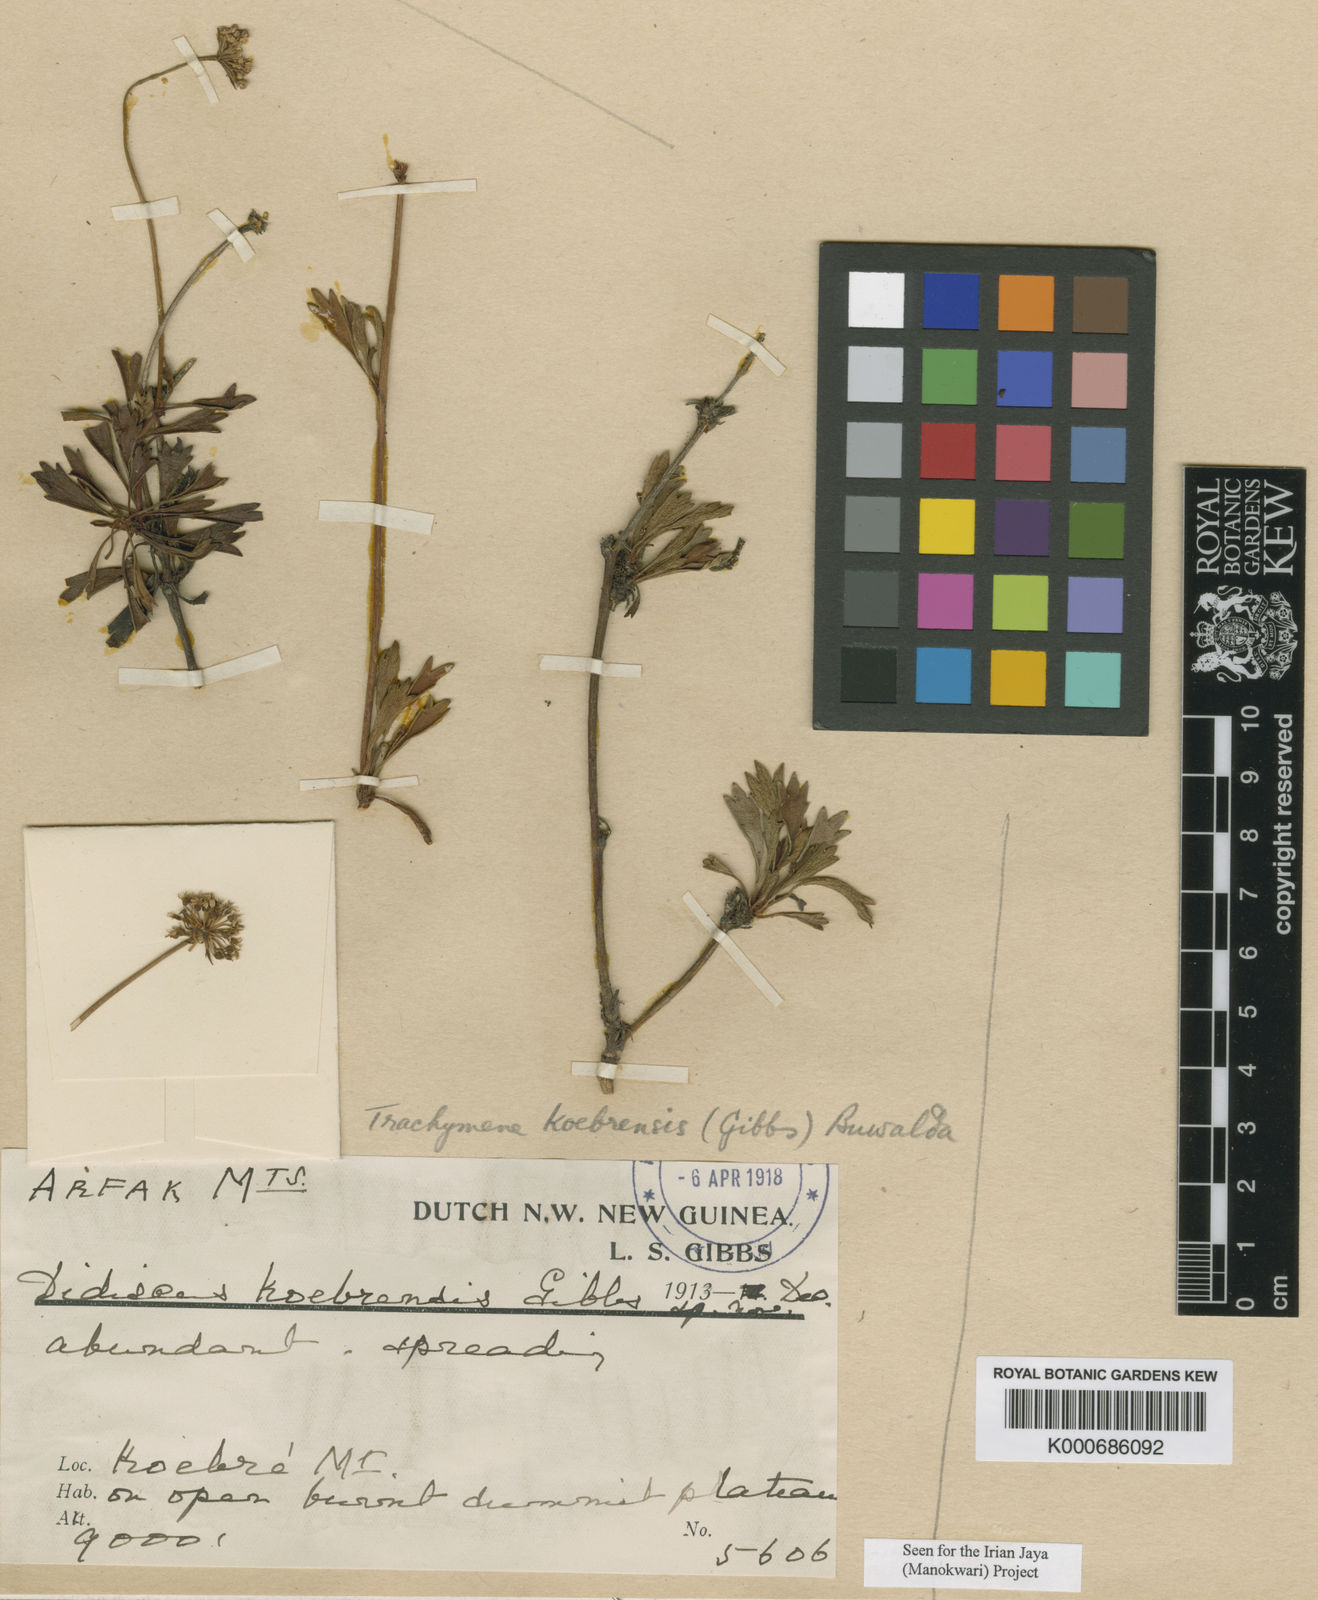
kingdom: Plantae
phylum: Tracheophyta
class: Magnoliopsida
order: Apiales
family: Araliaceae
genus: Trachymene
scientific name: Trachymene koebrensis
